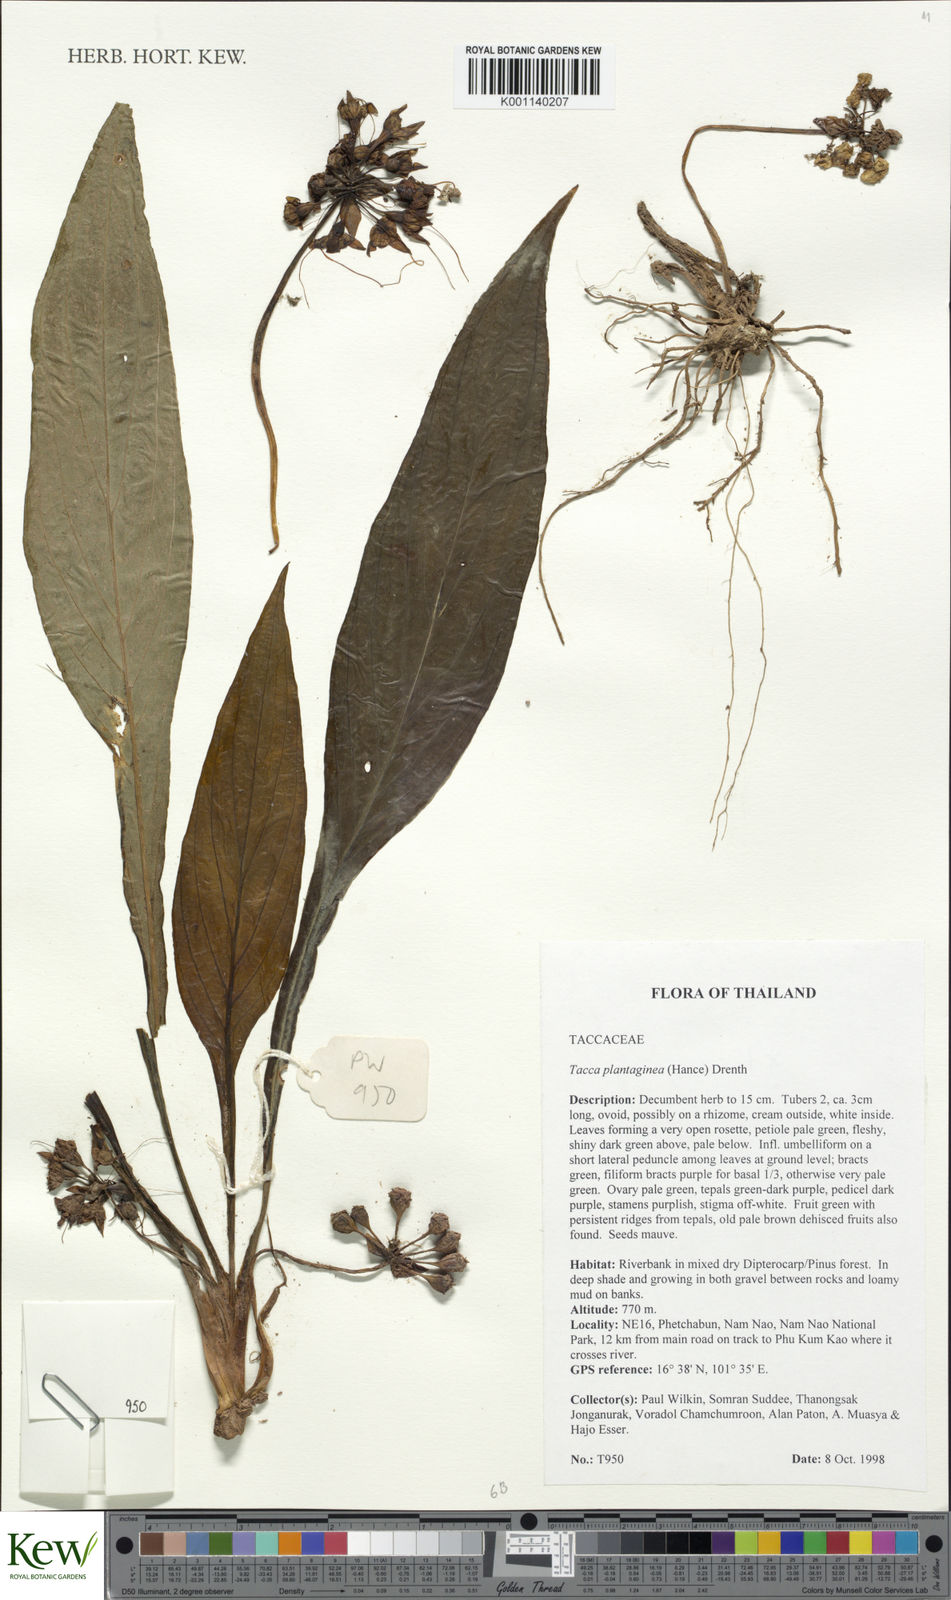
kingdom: Plantae
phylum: Tracheophyta
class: Liliopsida
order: Dioscoreales
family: Dioscoreaceae
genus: Tacca
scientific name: Tacca plantaginea
